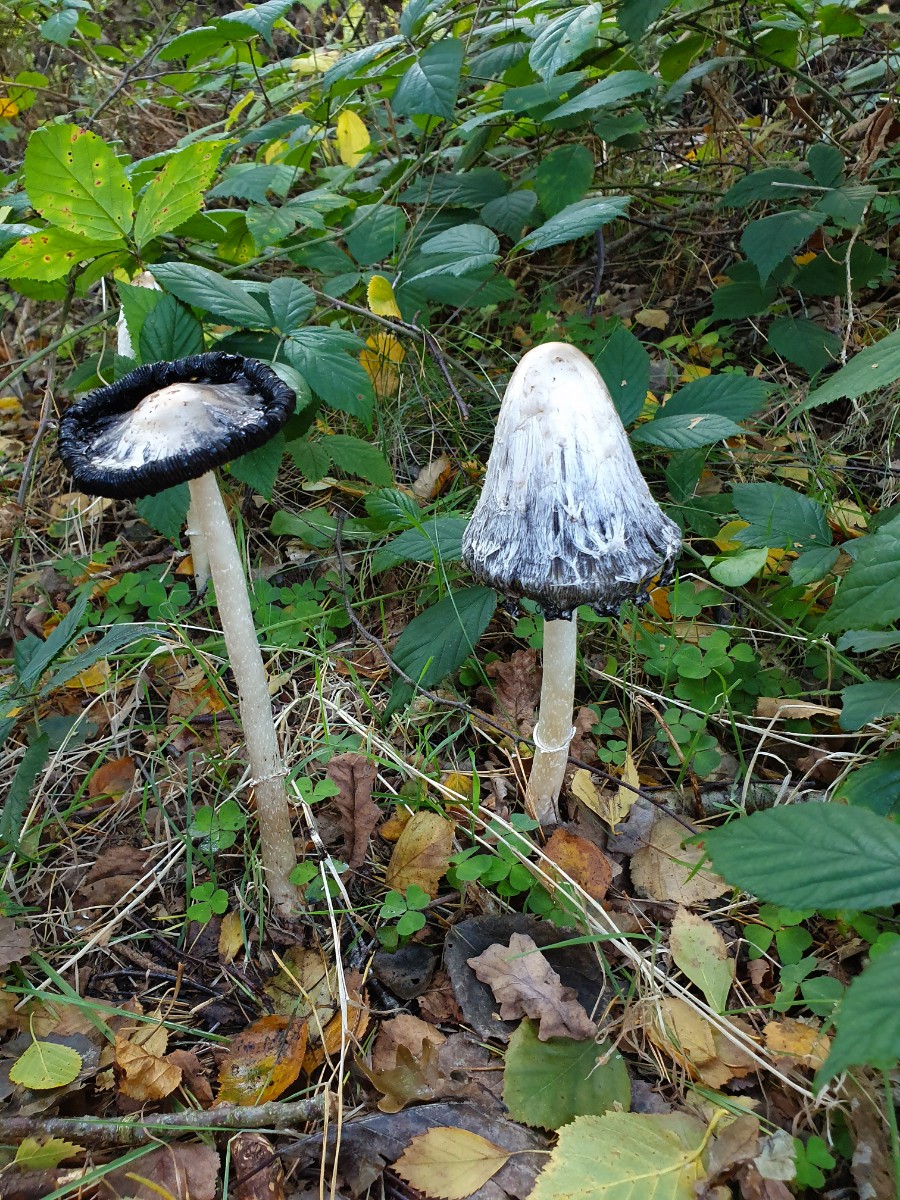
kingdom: Fungi
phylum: Basidiomycota
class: Agaricomycetes
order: Agaricales
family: Agaricaceae
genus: Coprinus
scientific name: Coprinus comatus
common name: stor parykhat
